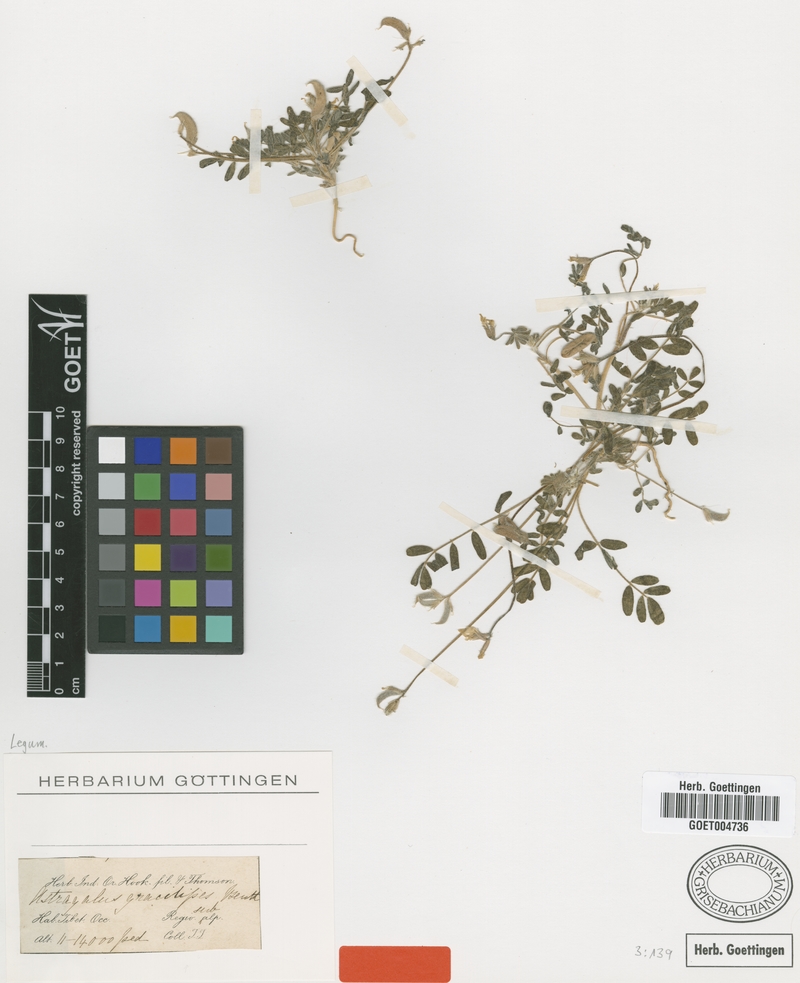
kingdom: Plantae
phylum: Tracheophyta
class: Magnoliopsida
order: Fabales
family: Fabaceae
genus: Astragalus
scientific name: Astragalus gracilipes
